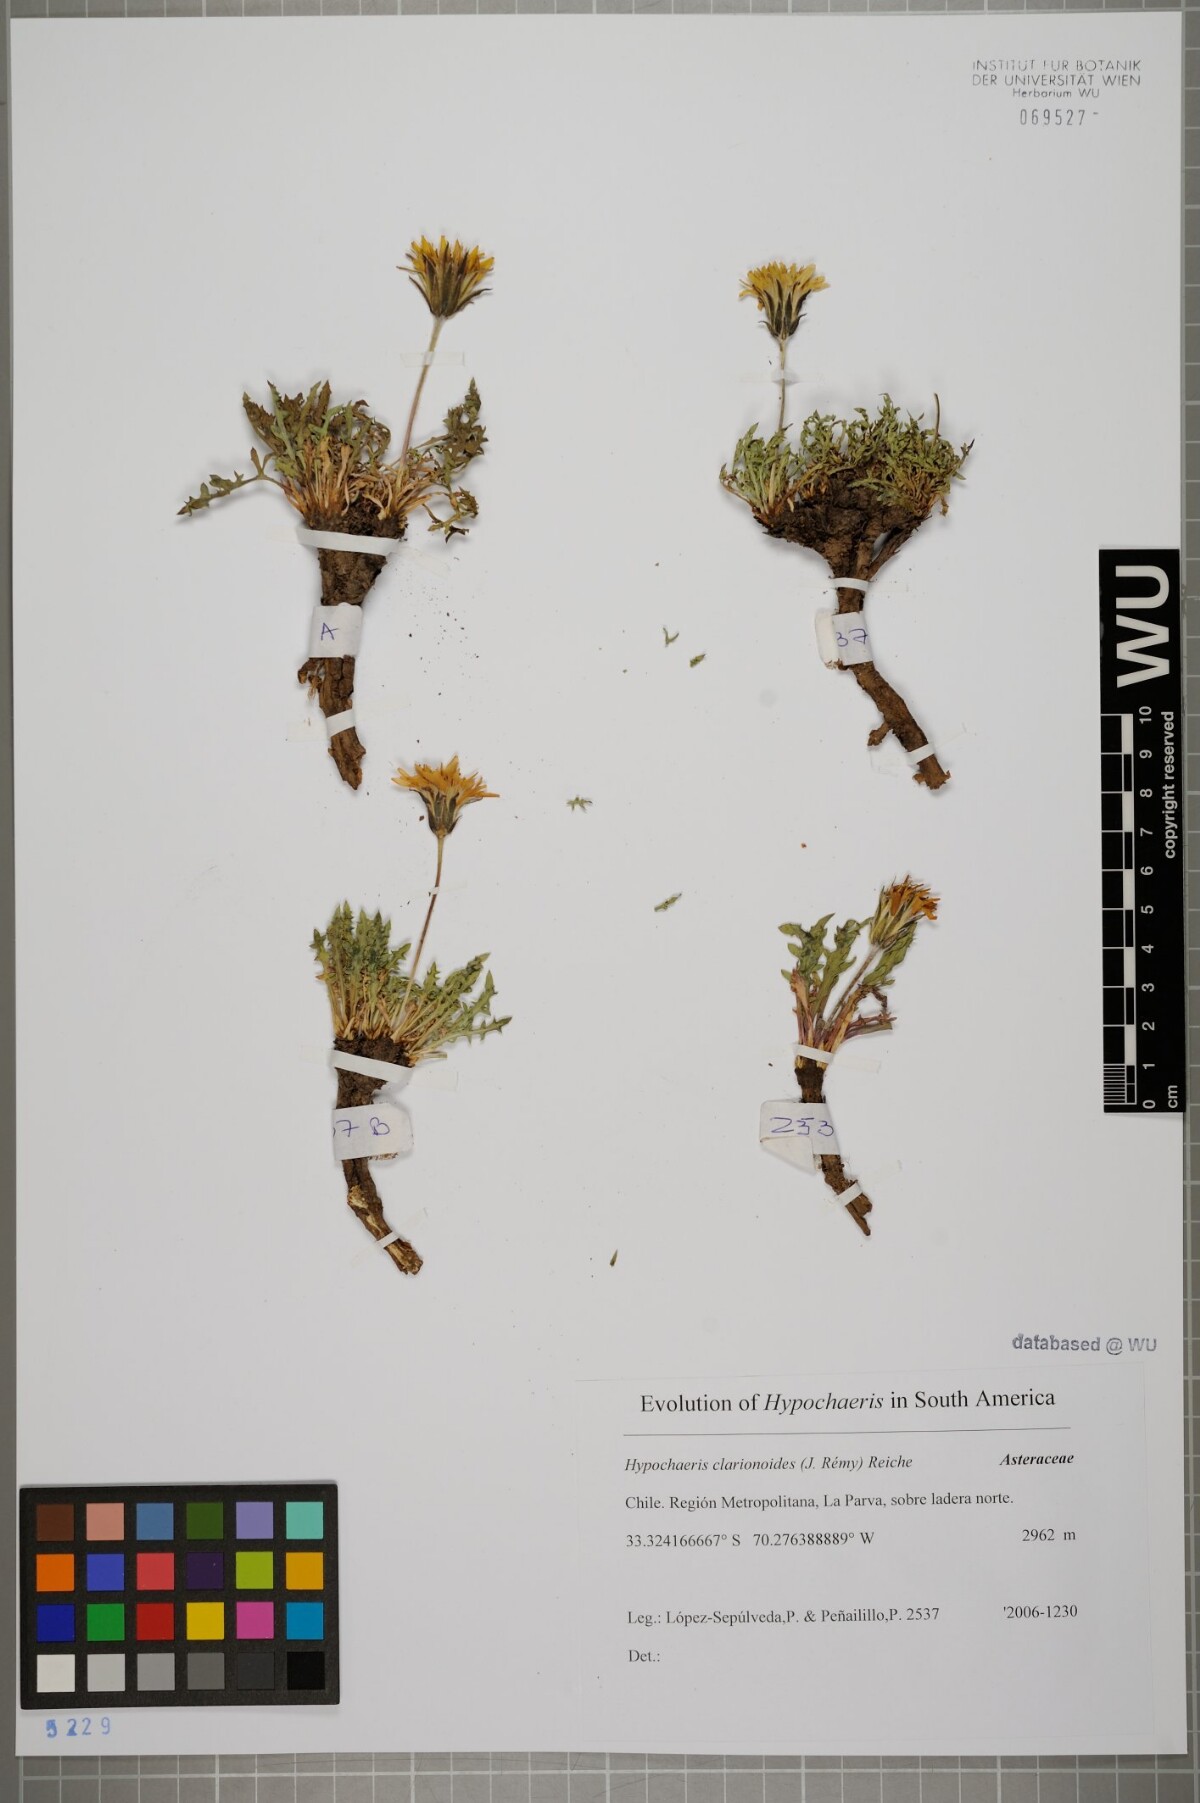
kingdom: Plantae
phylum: Tracheophyta
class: Magnoliopsida
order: Asterales
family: Asteraceae
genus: Hypochaeris
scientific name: Hypochaeris clarionoides
